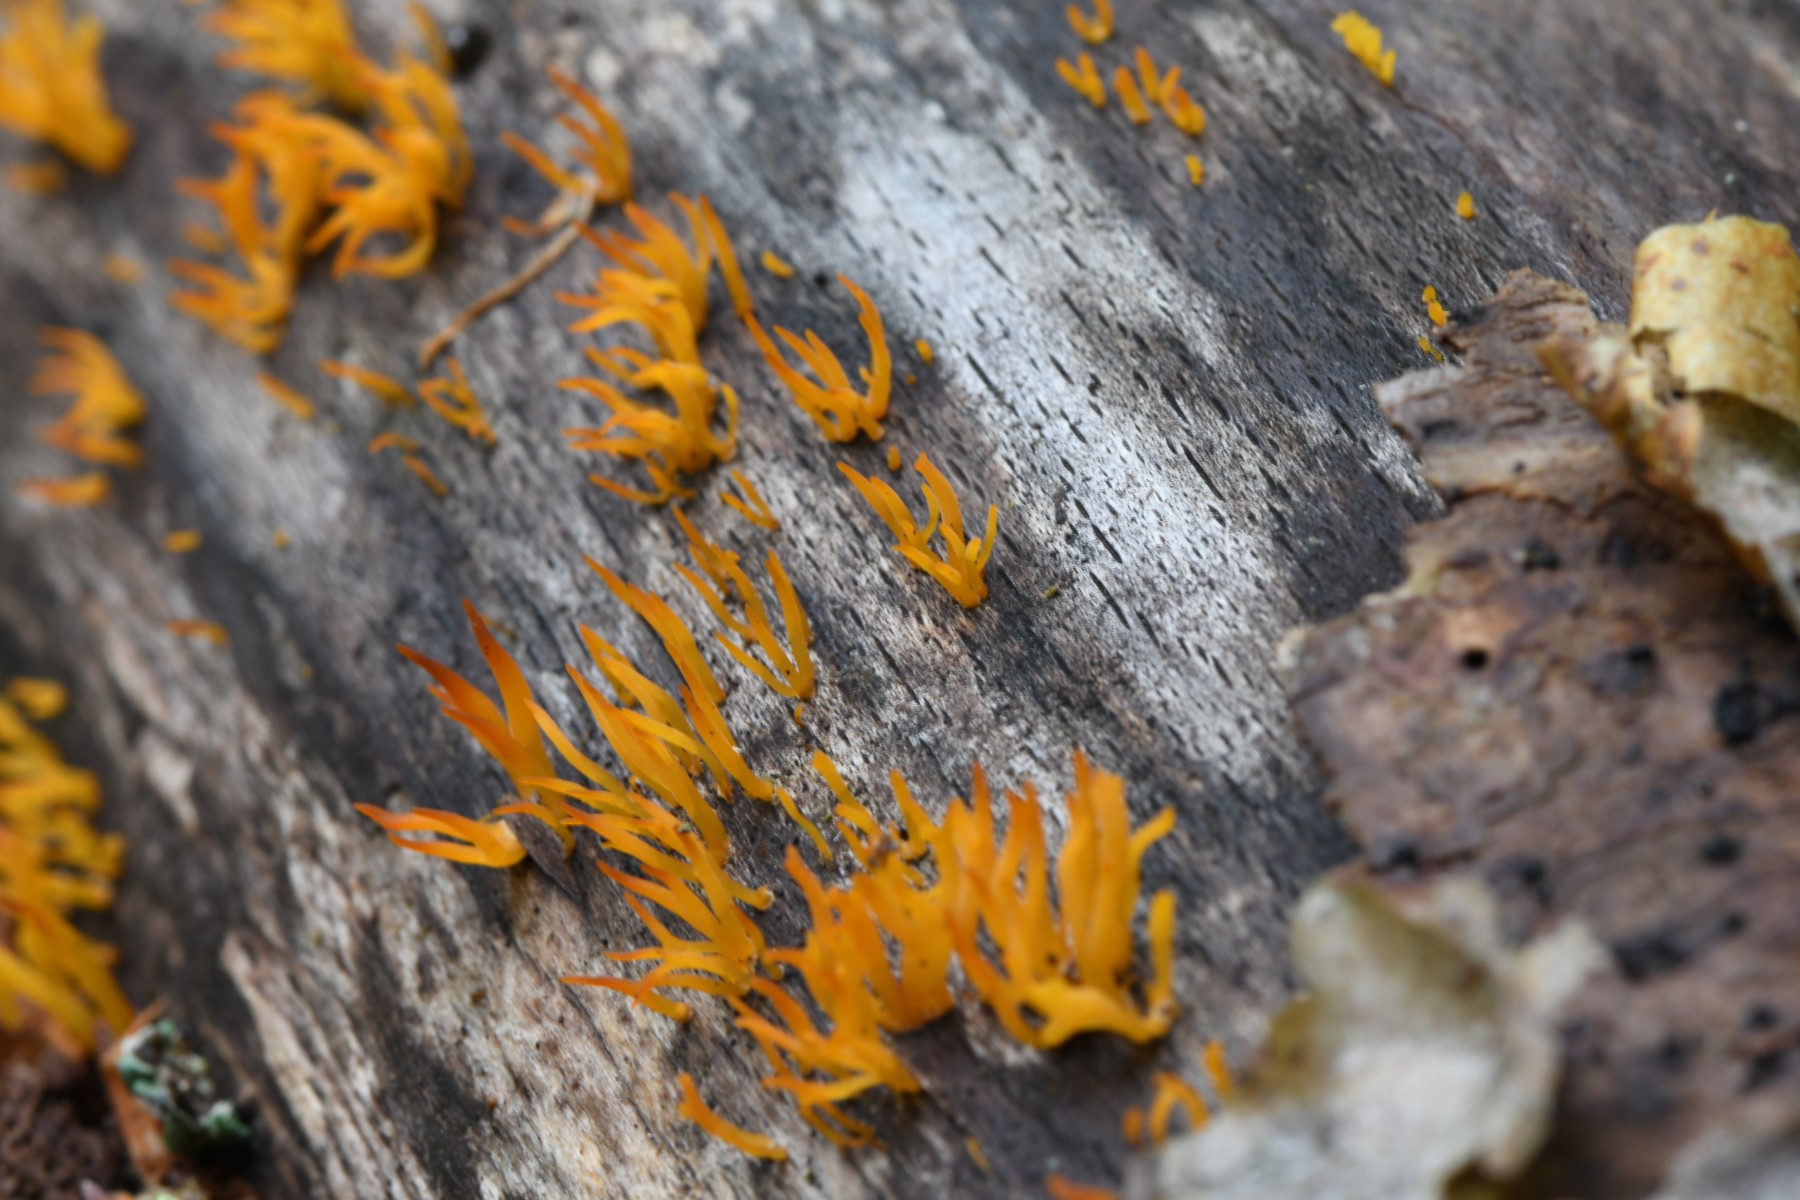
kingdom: Fungi
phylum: Basidiomycota
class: Dacrymycetes
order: Dacrymycetales
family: Dacrymycetaceae
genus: Calocera
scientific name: Calocera cornea
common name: liden guldgaffel
